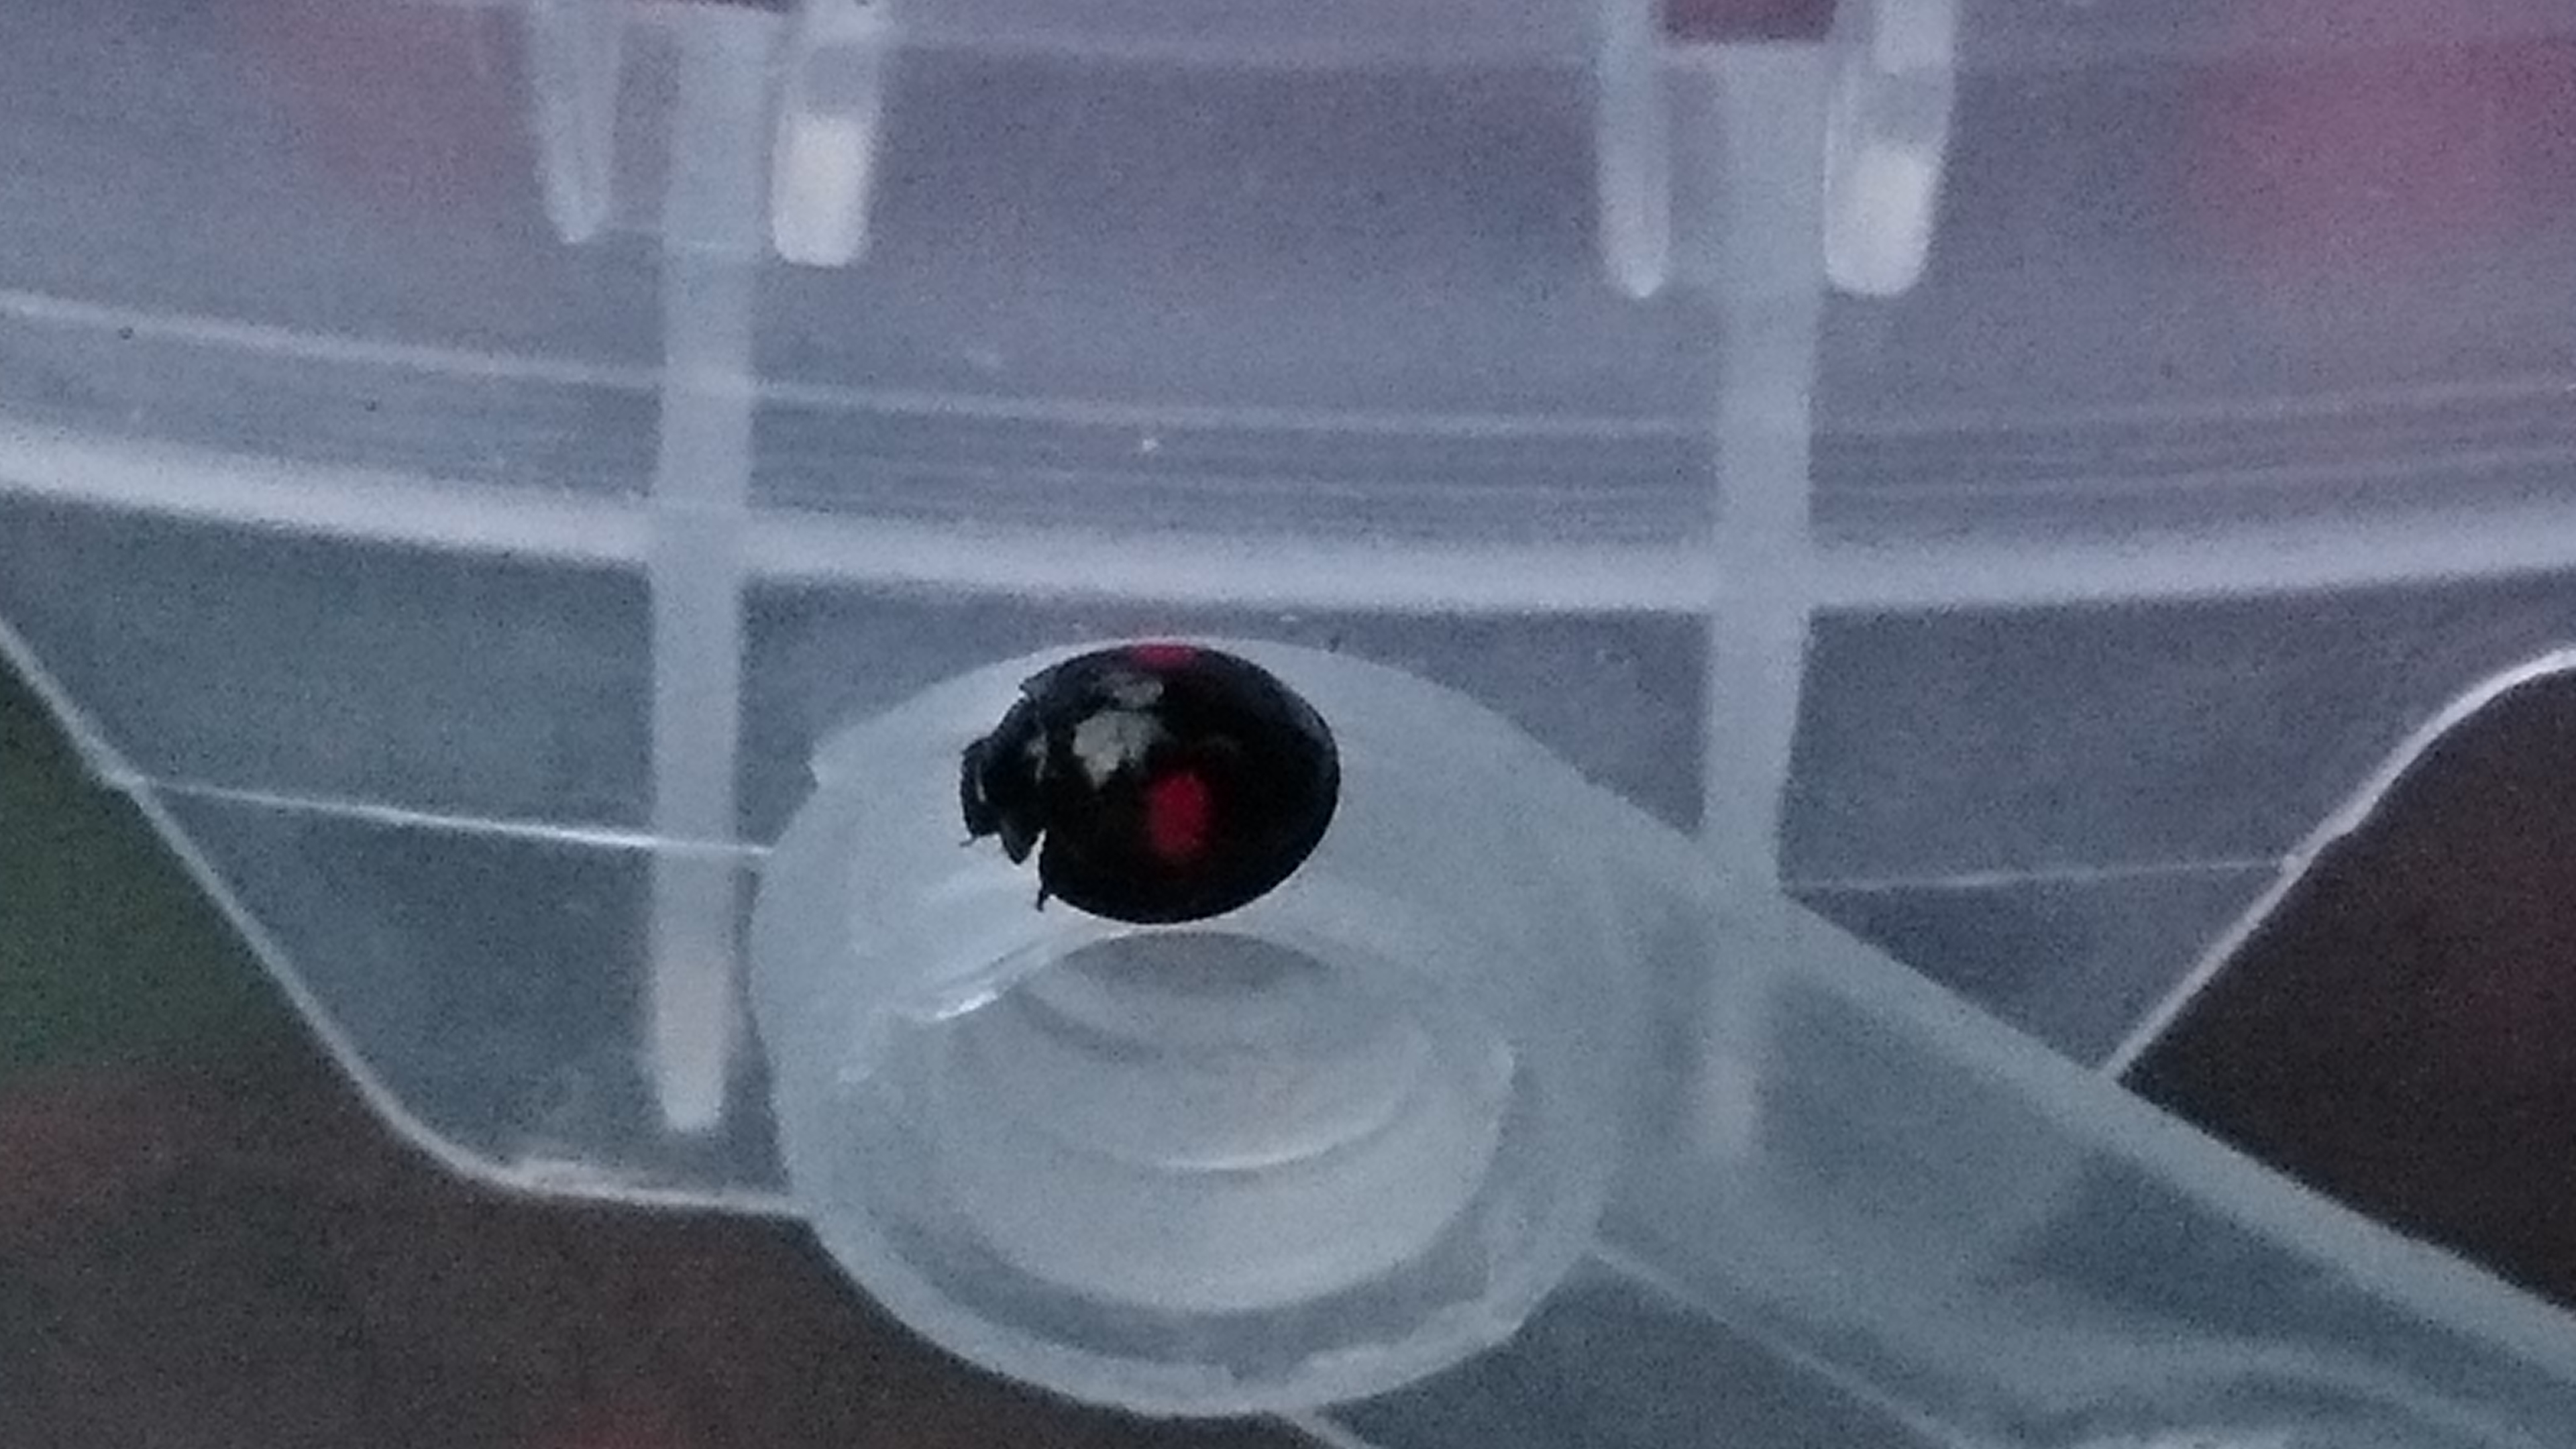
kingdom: Animalia
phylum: Arthropoda
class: Insecta
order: Coleoptera
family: Coccinellidae
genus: Chilocorus
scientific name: Chilocorus renipustulatus
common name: Kidney-spot ladybird
